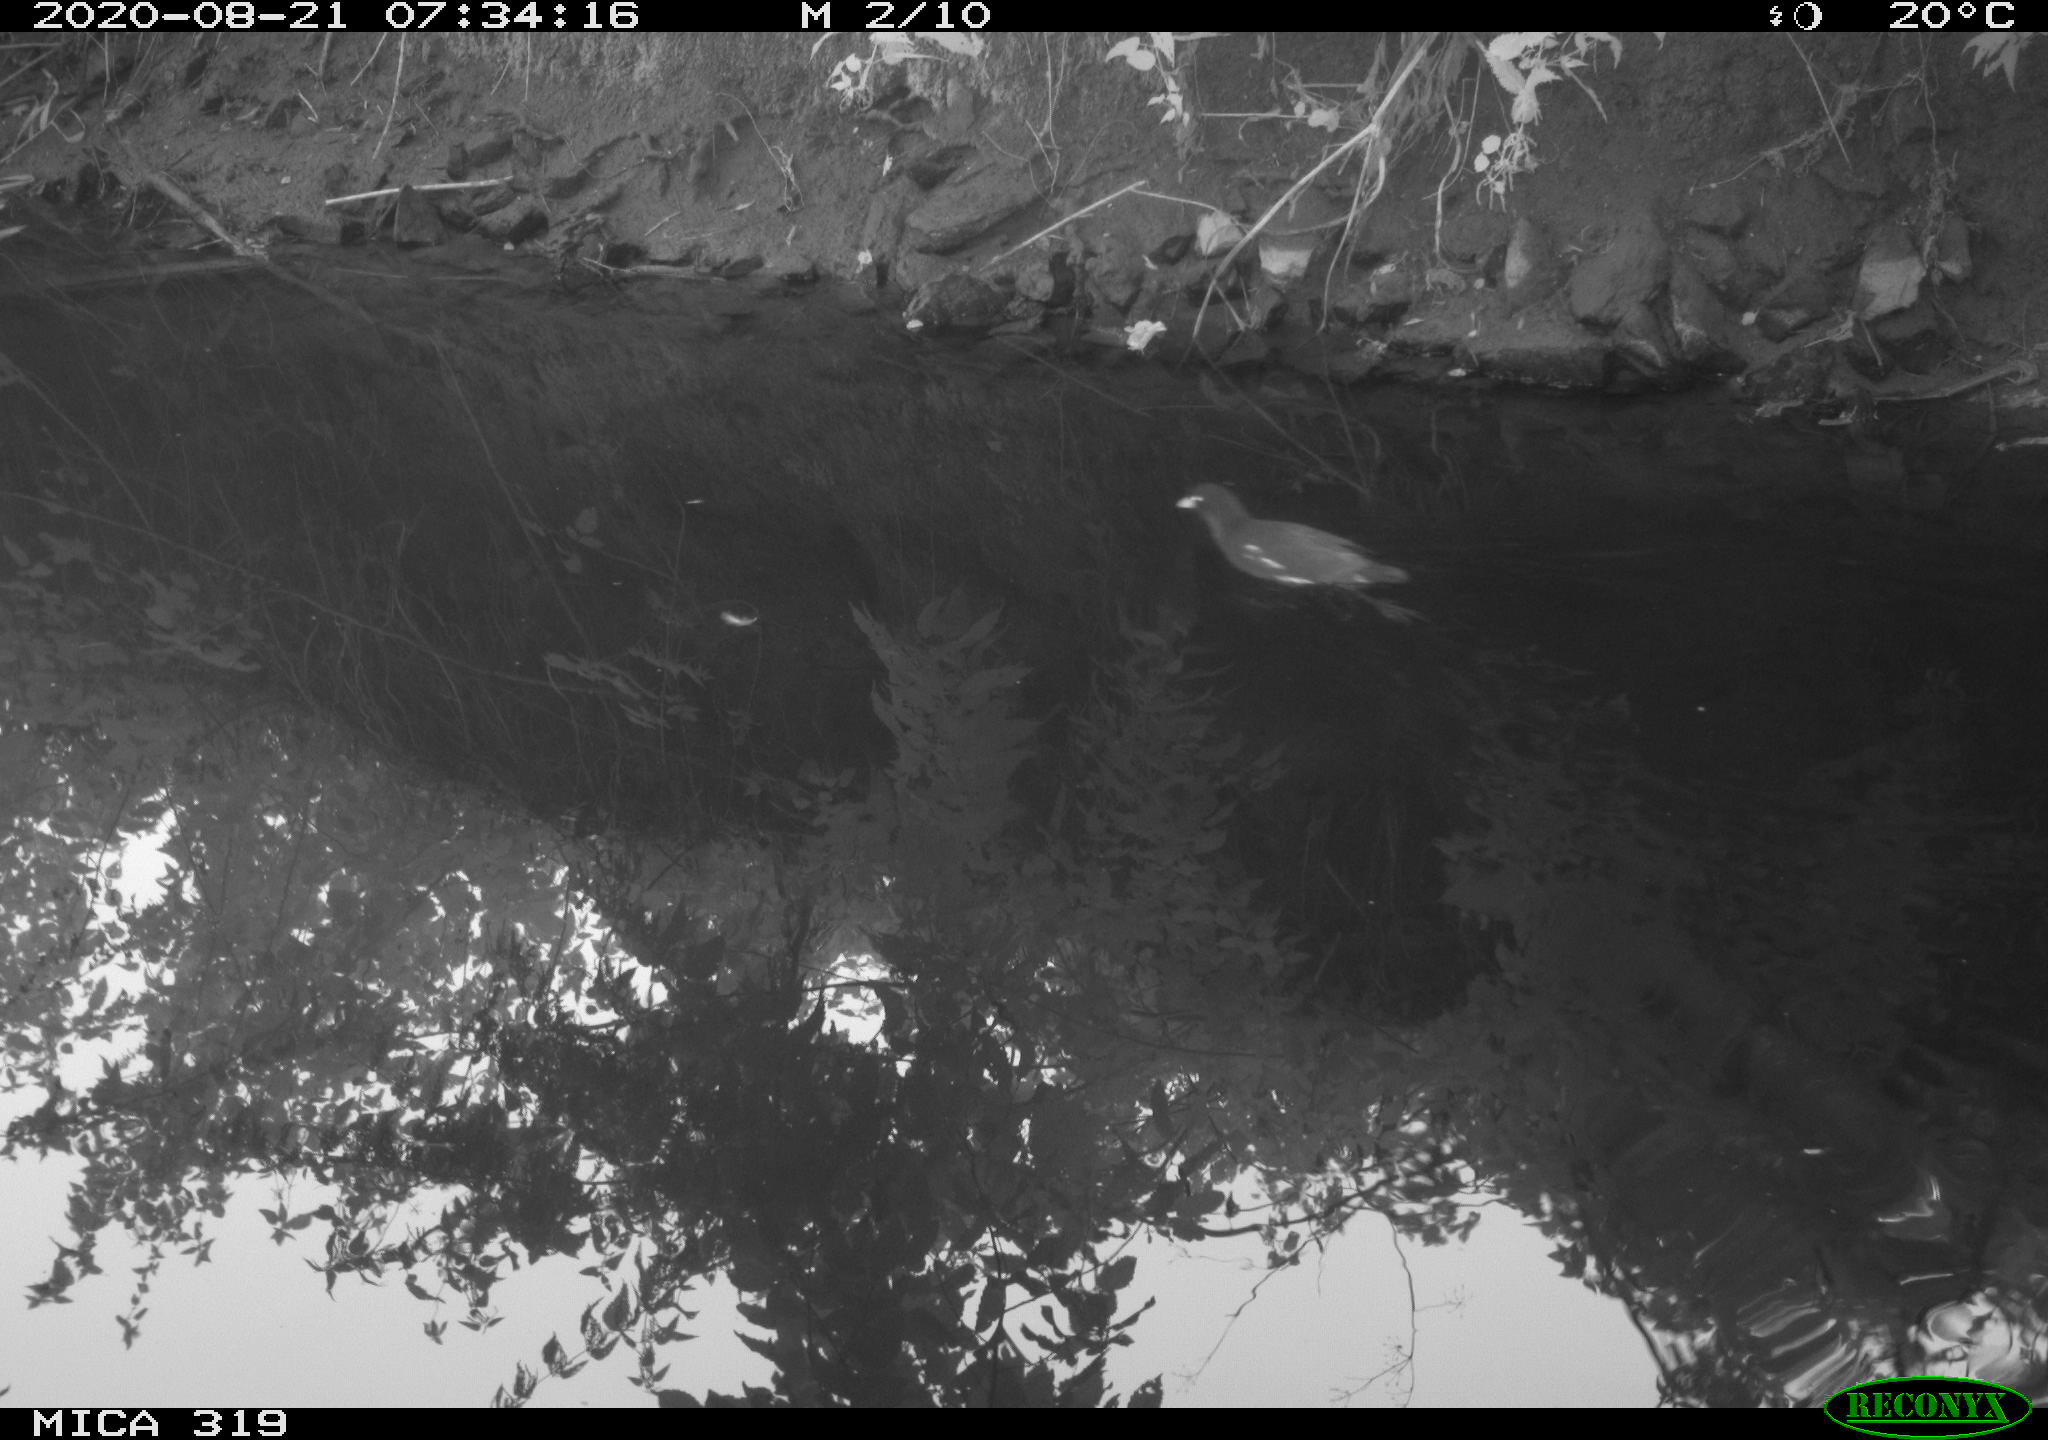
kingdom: Animalia
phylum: Chordata
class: Aves
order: Gruiformes
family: Rallidae
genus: Gallinula
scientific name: Gallinula chloropus
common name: Common moorhen
